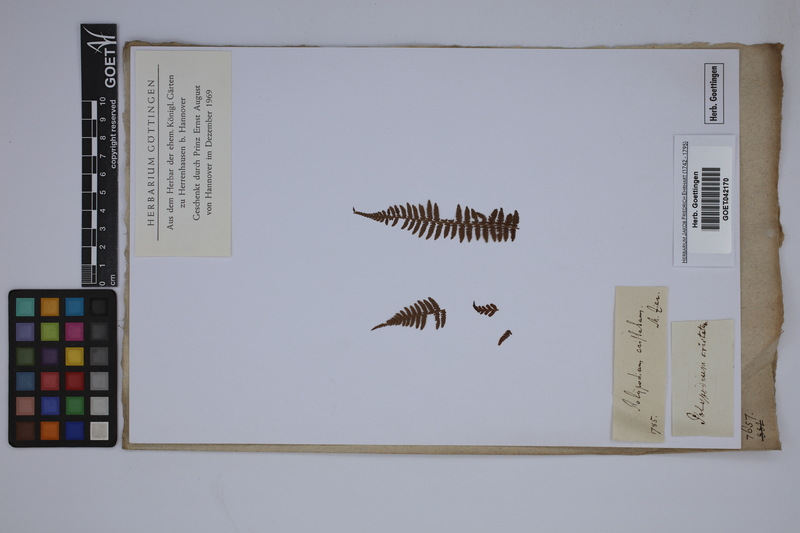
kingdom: Plantae
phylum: Tracheophyta
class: Polypodiopsida
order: Polypodiales
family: Dryopteridaceae
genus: Dryopteris
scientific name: Dryopteris cristata
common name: Crested wood fern
